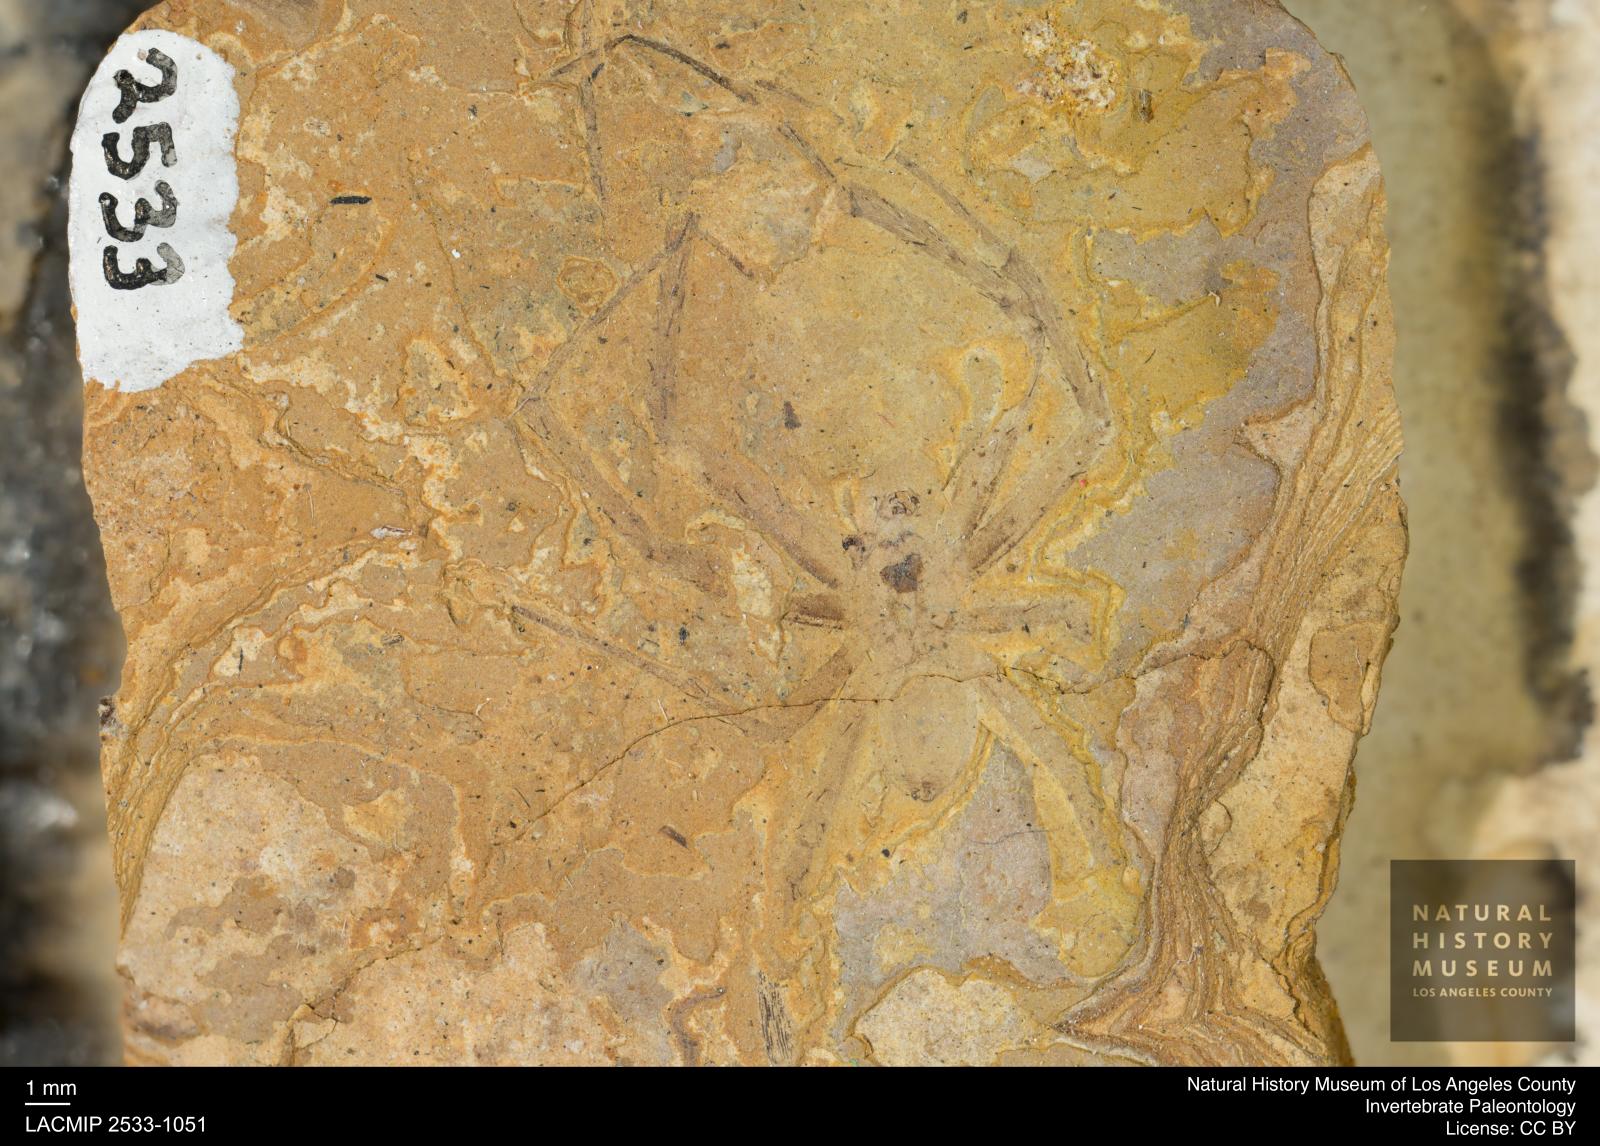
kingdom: Animalia
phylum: Arthropoda
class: Arachnida
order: Araneae
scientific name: Araneae
